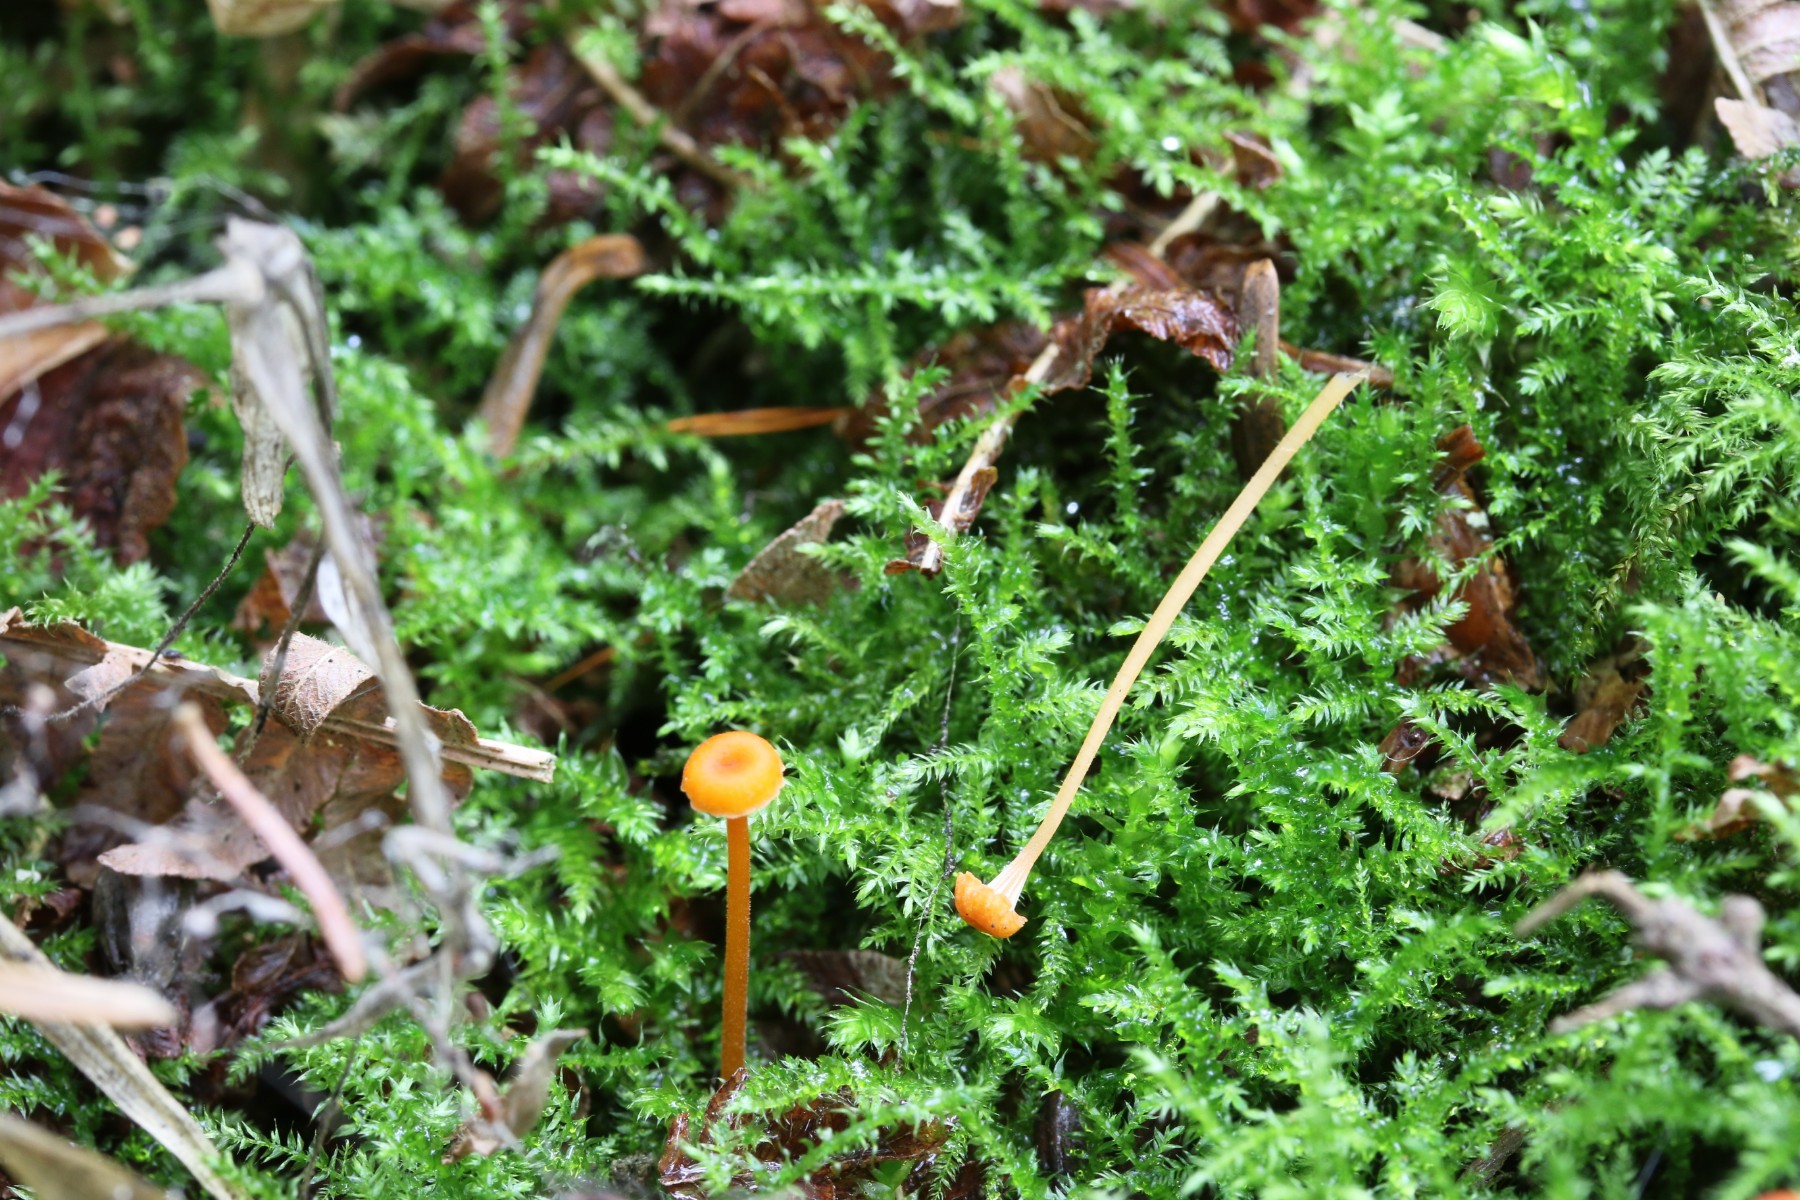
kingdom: Fungi
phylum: Basidiomycota
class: Agaricomycetes
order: Hymenochaetales
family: Rickenellaceae
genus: Rickenella
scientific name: Rickenella fibula
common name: orange mosnavlehat
